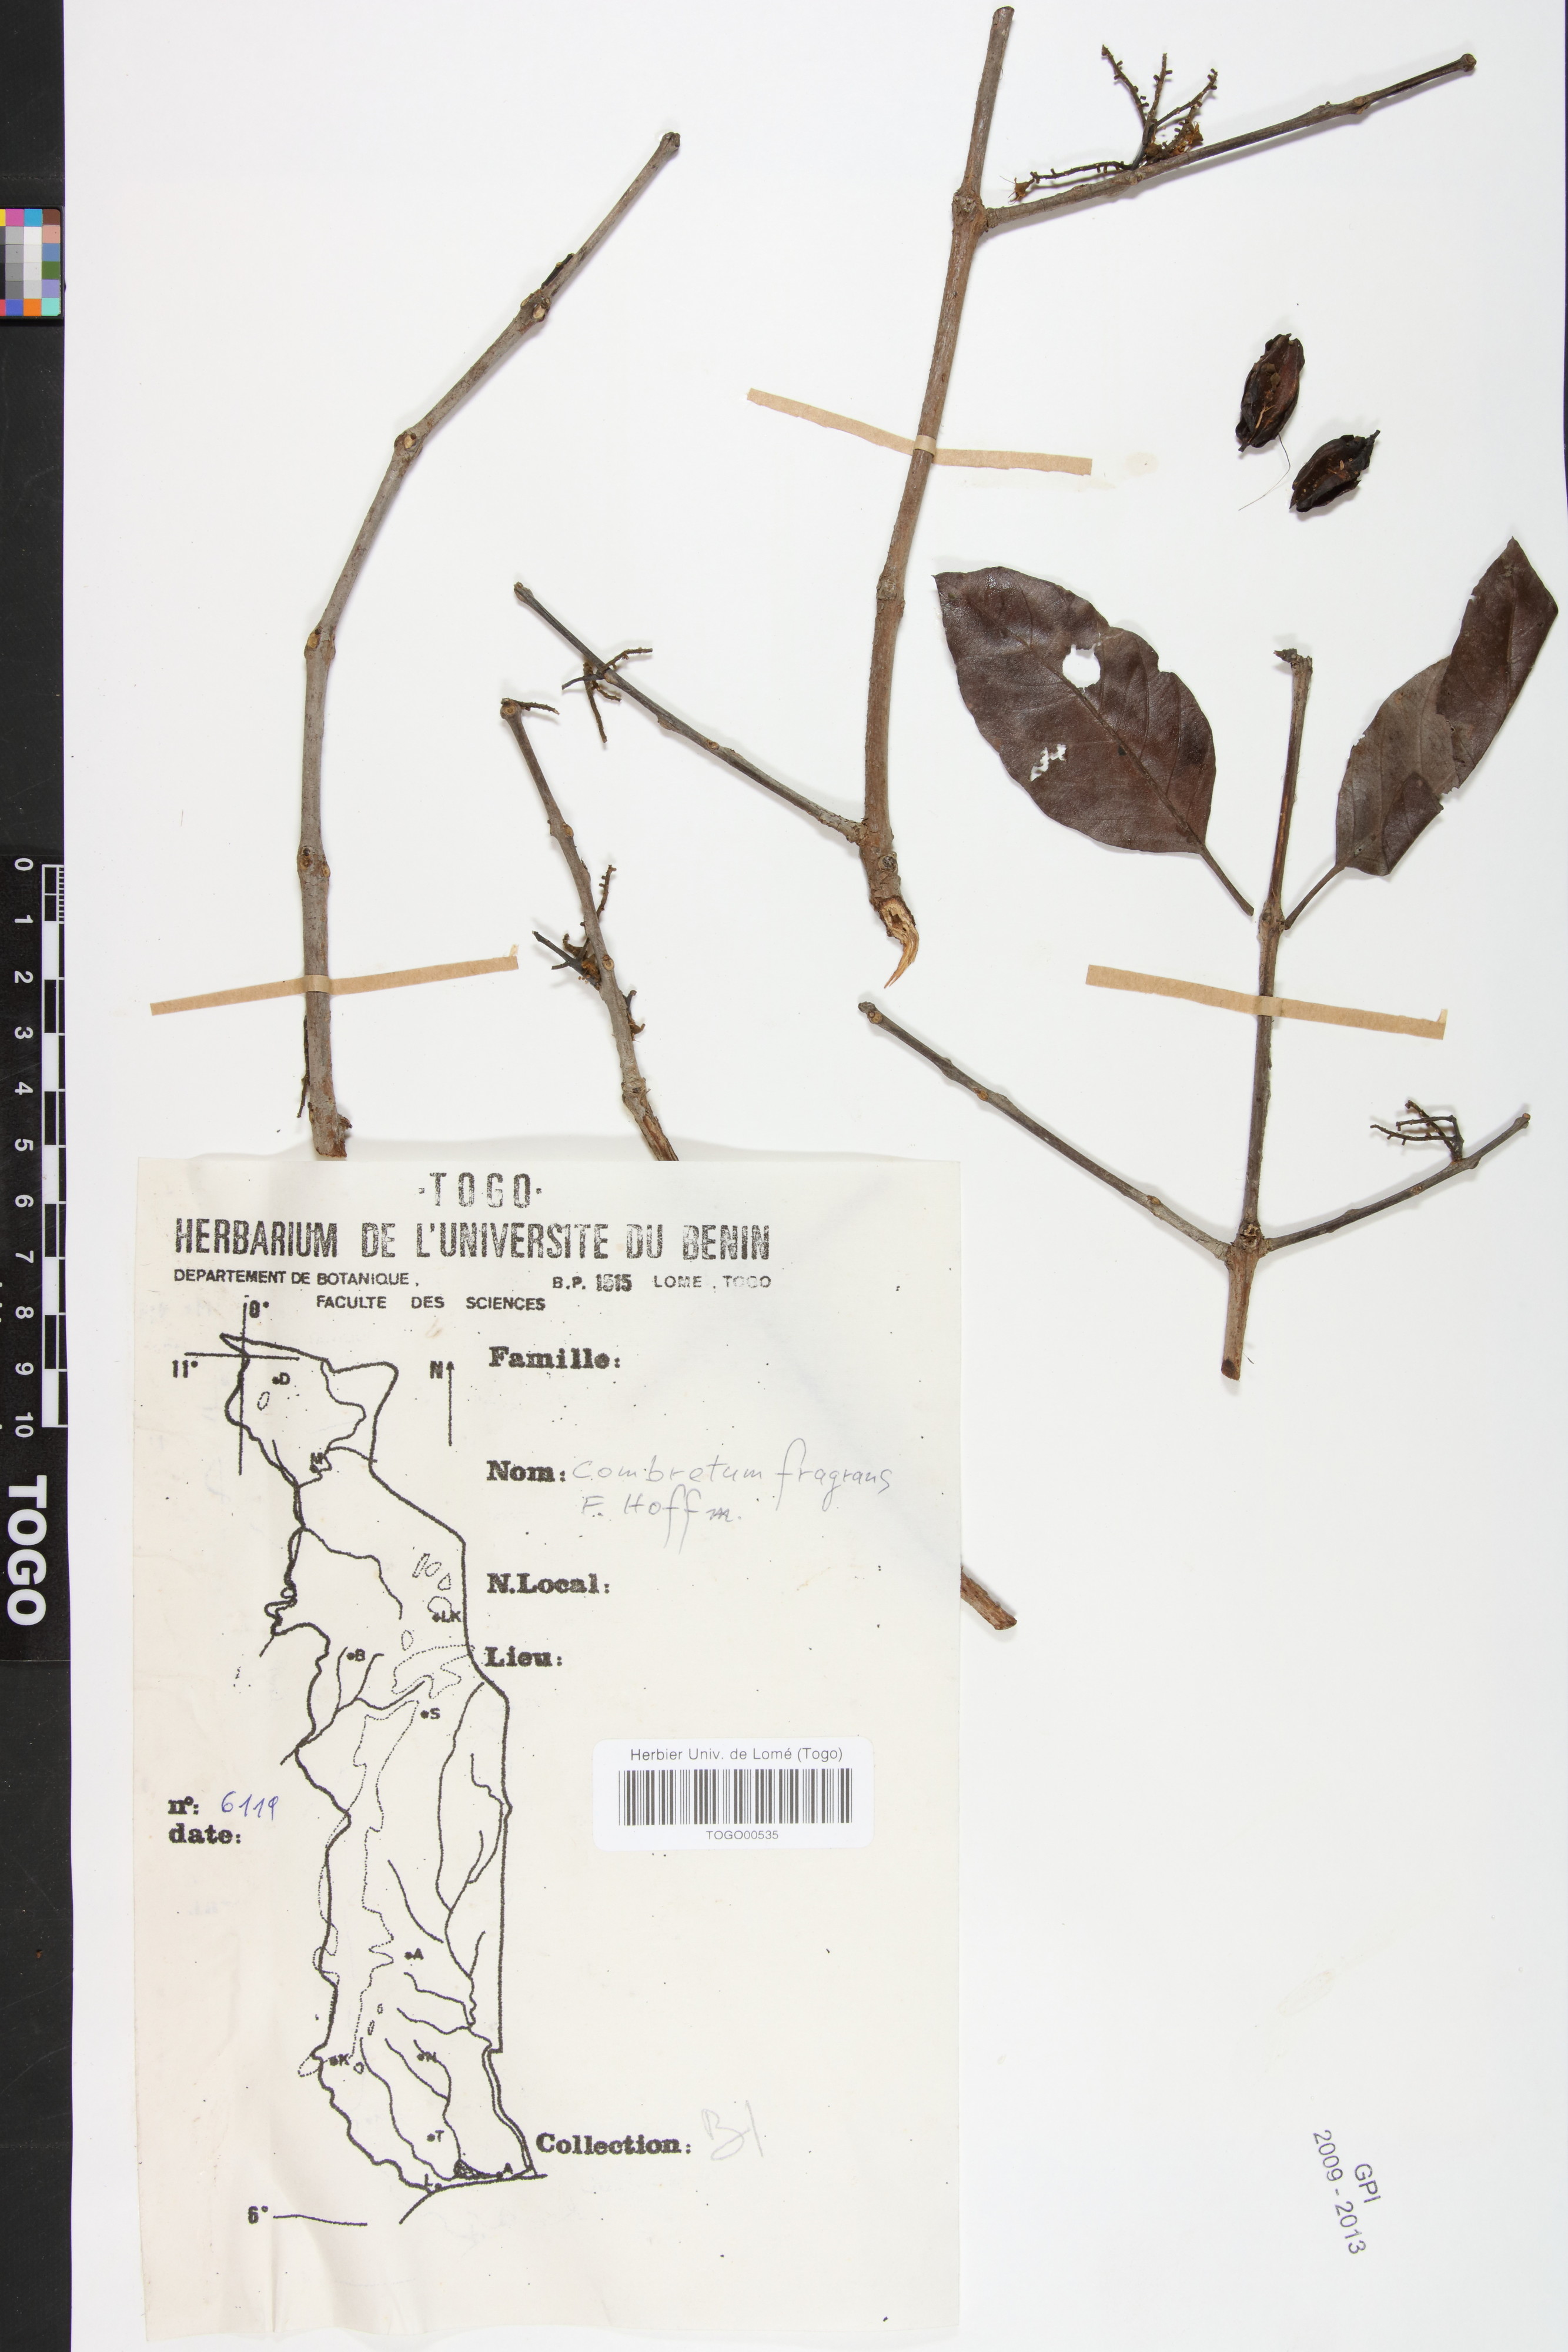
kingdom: Plantae
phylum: Tracheophyta
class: Magnoliopsida
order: Myrtales
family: Combretaceae
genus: Combretum
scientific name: Combretum adenogonium
